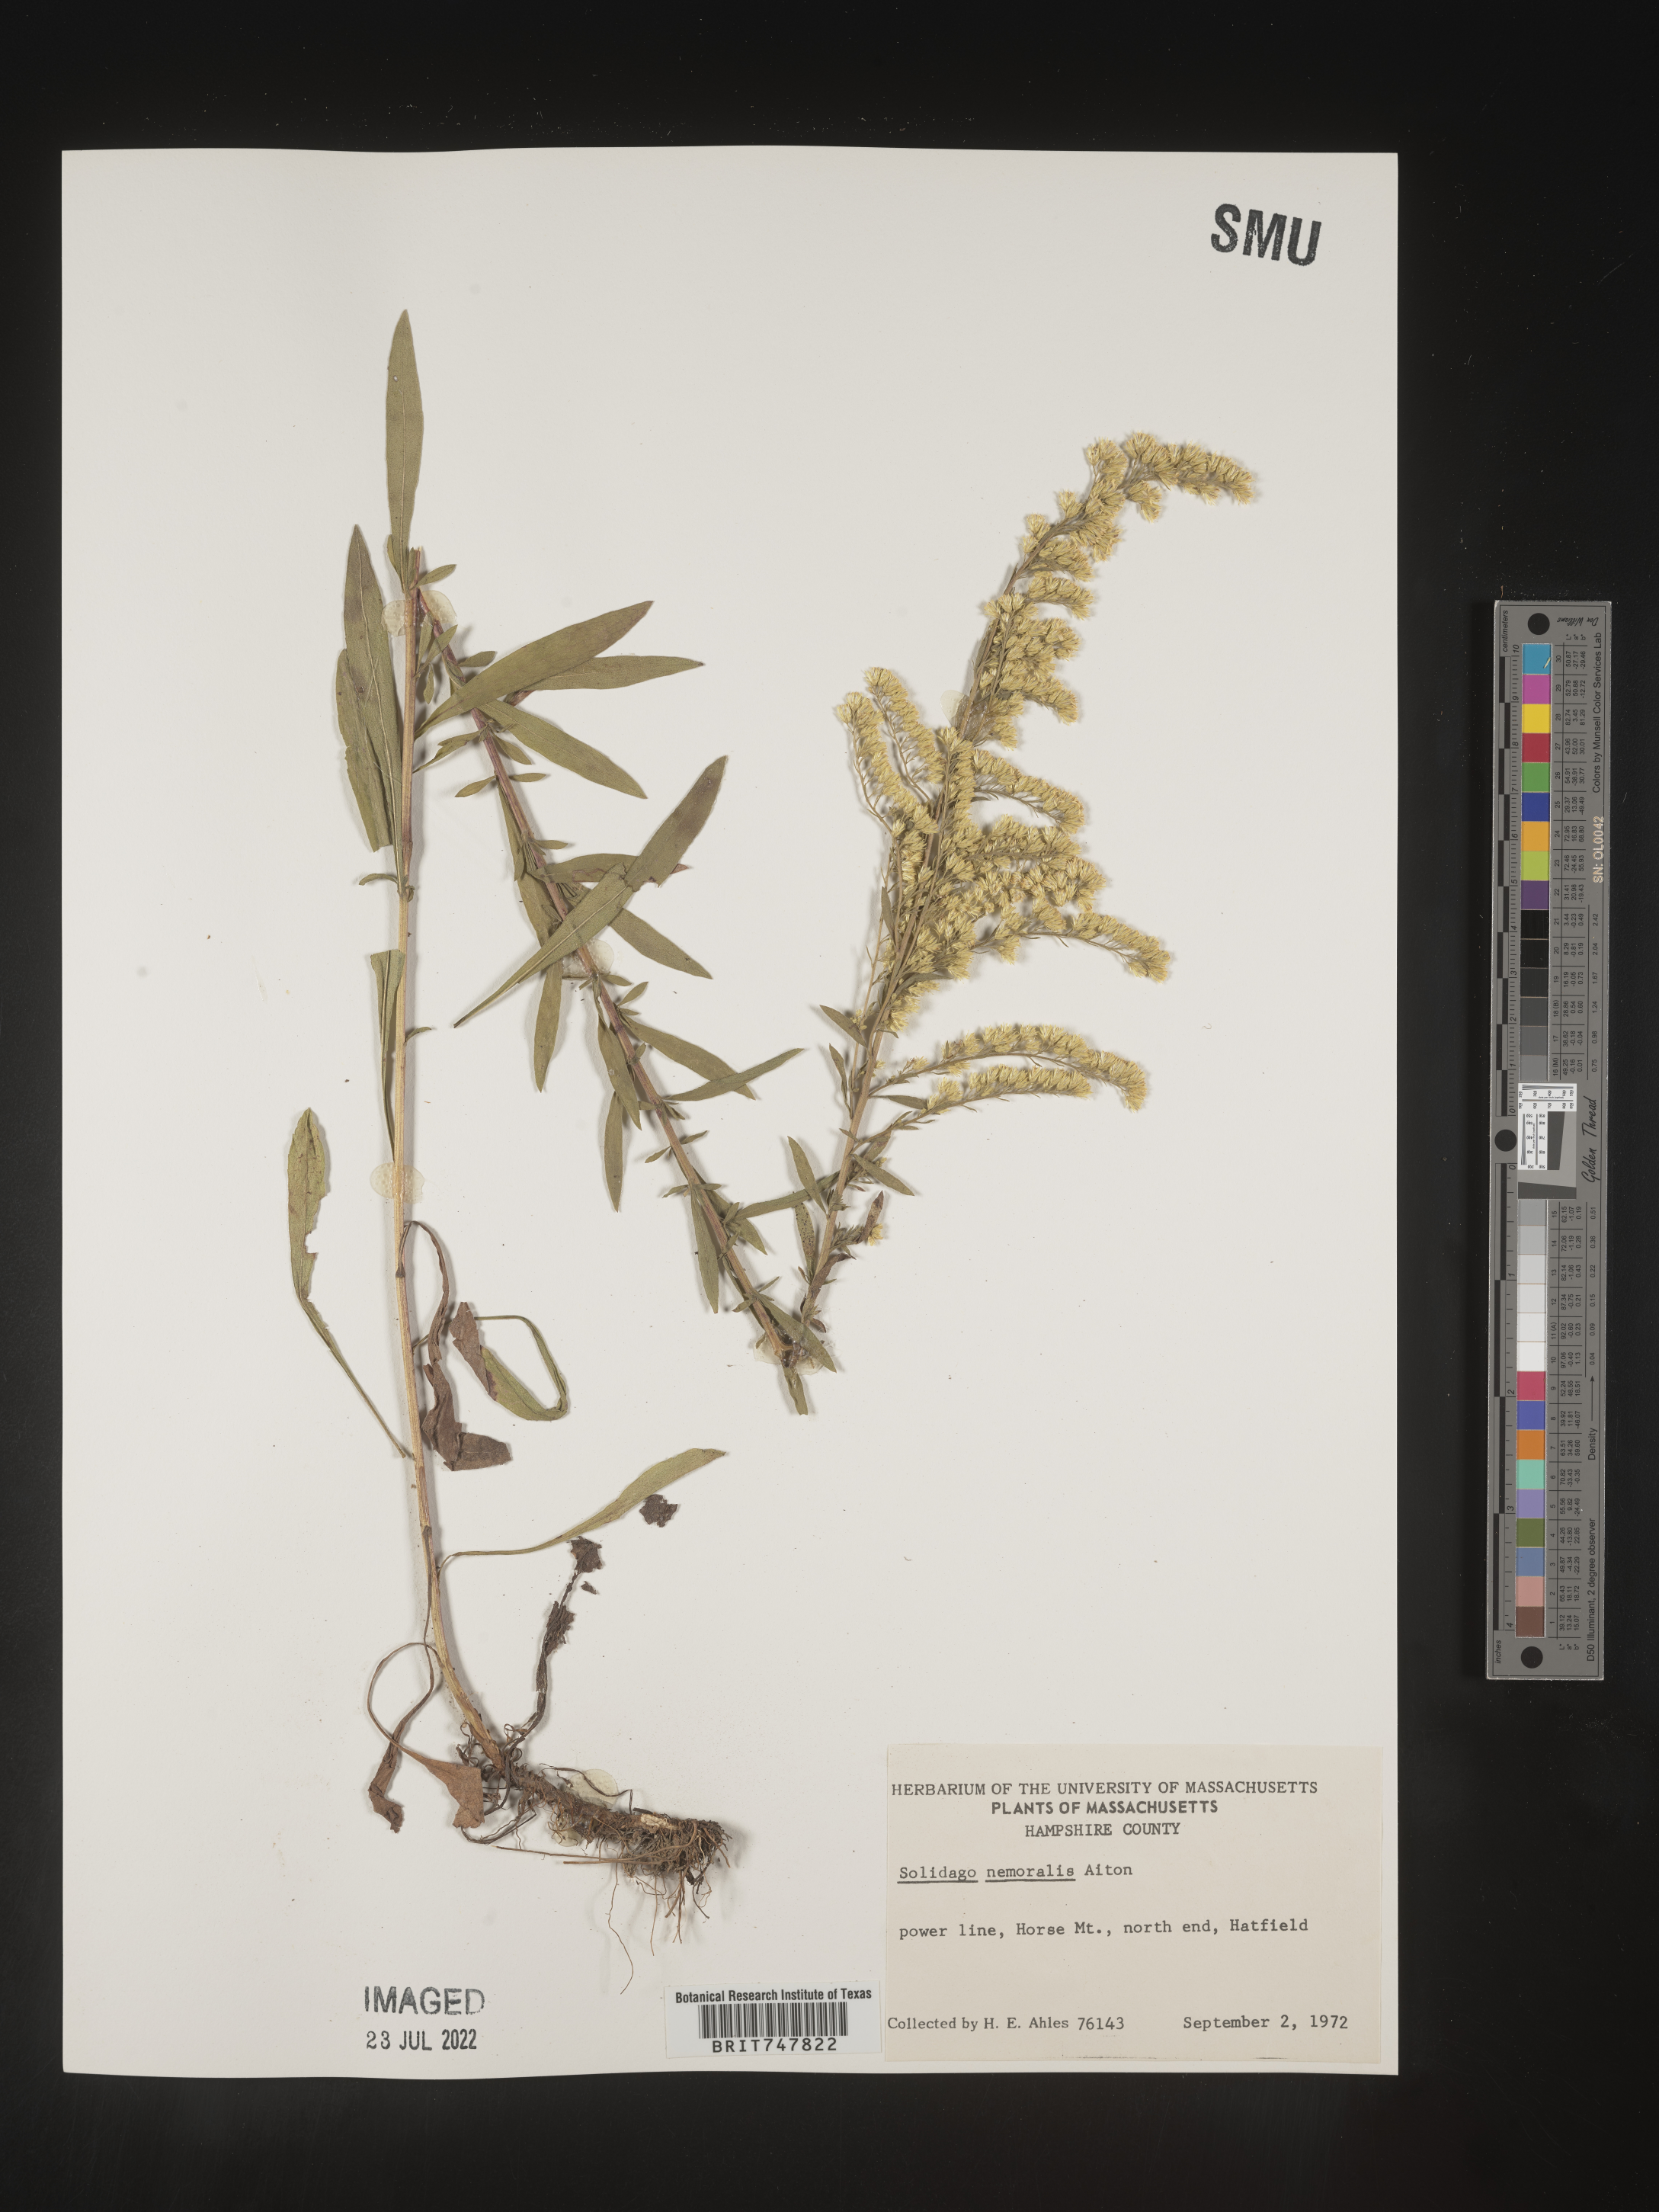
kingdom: Plantae
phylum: Tracheophyta
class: Magnoliopsida
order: Asterales
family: Asteraceae
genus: Solidago
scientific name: Solidago nemoralis
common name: Grey goldenrod
